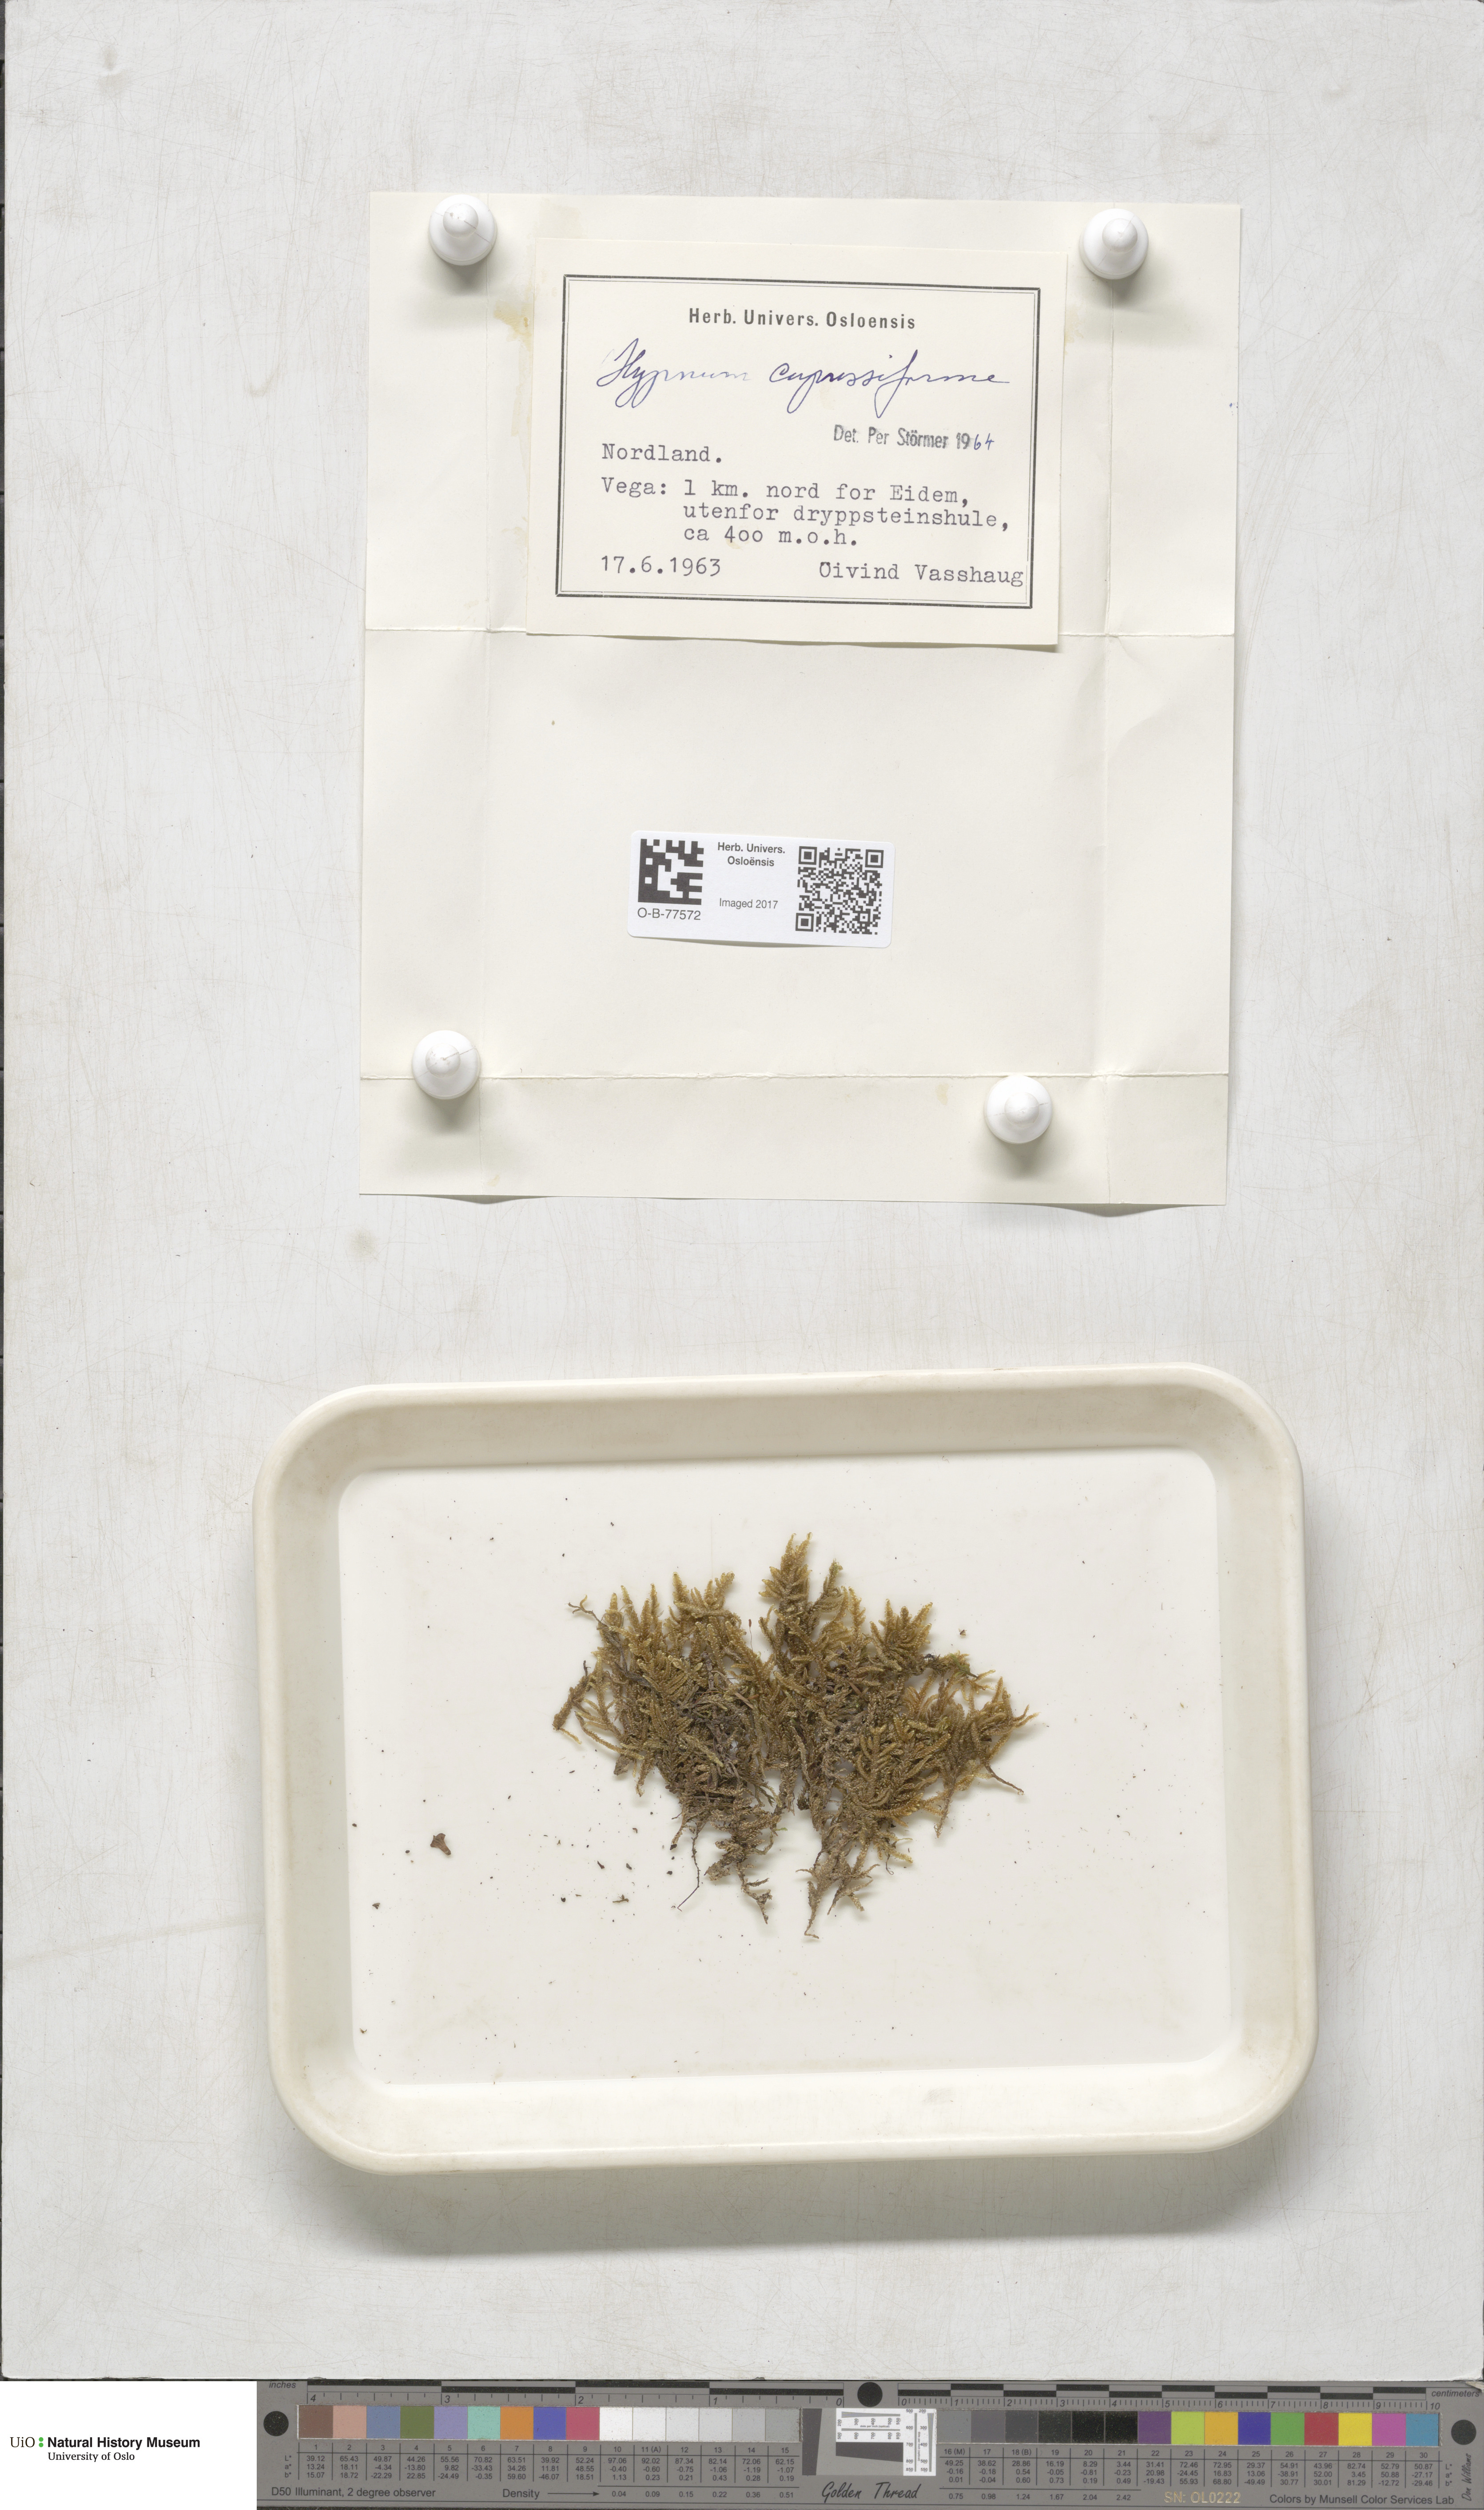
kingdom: Plantae
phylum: Bryophyta
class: Bryopsida
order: Hypnales
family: Hypnaceae
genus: Hypnum
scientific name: Hypnum cupressiforme
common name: Cypress-leaved plait-moss
